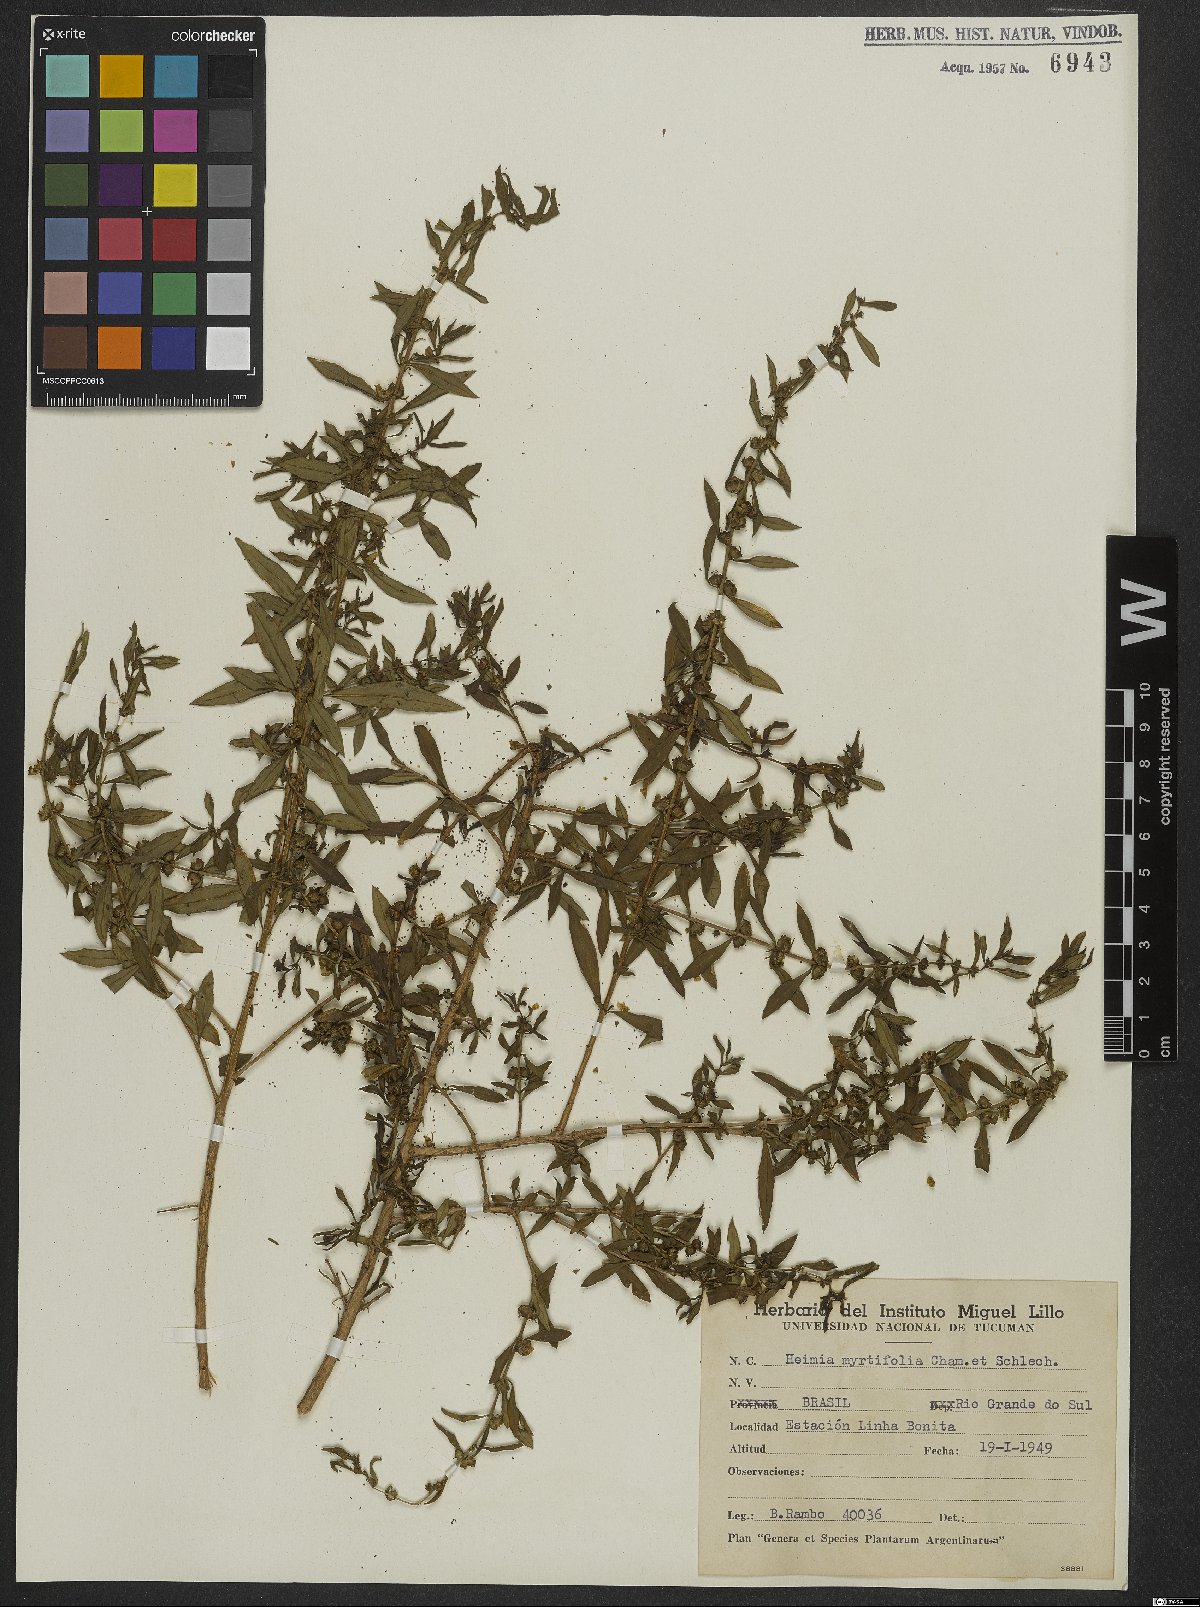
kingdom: Plantae
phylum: Tracheophyta
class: Magnoliopsida
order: Myrtales
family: Lythraceae
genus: Heimia
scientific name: Heimia apetala
